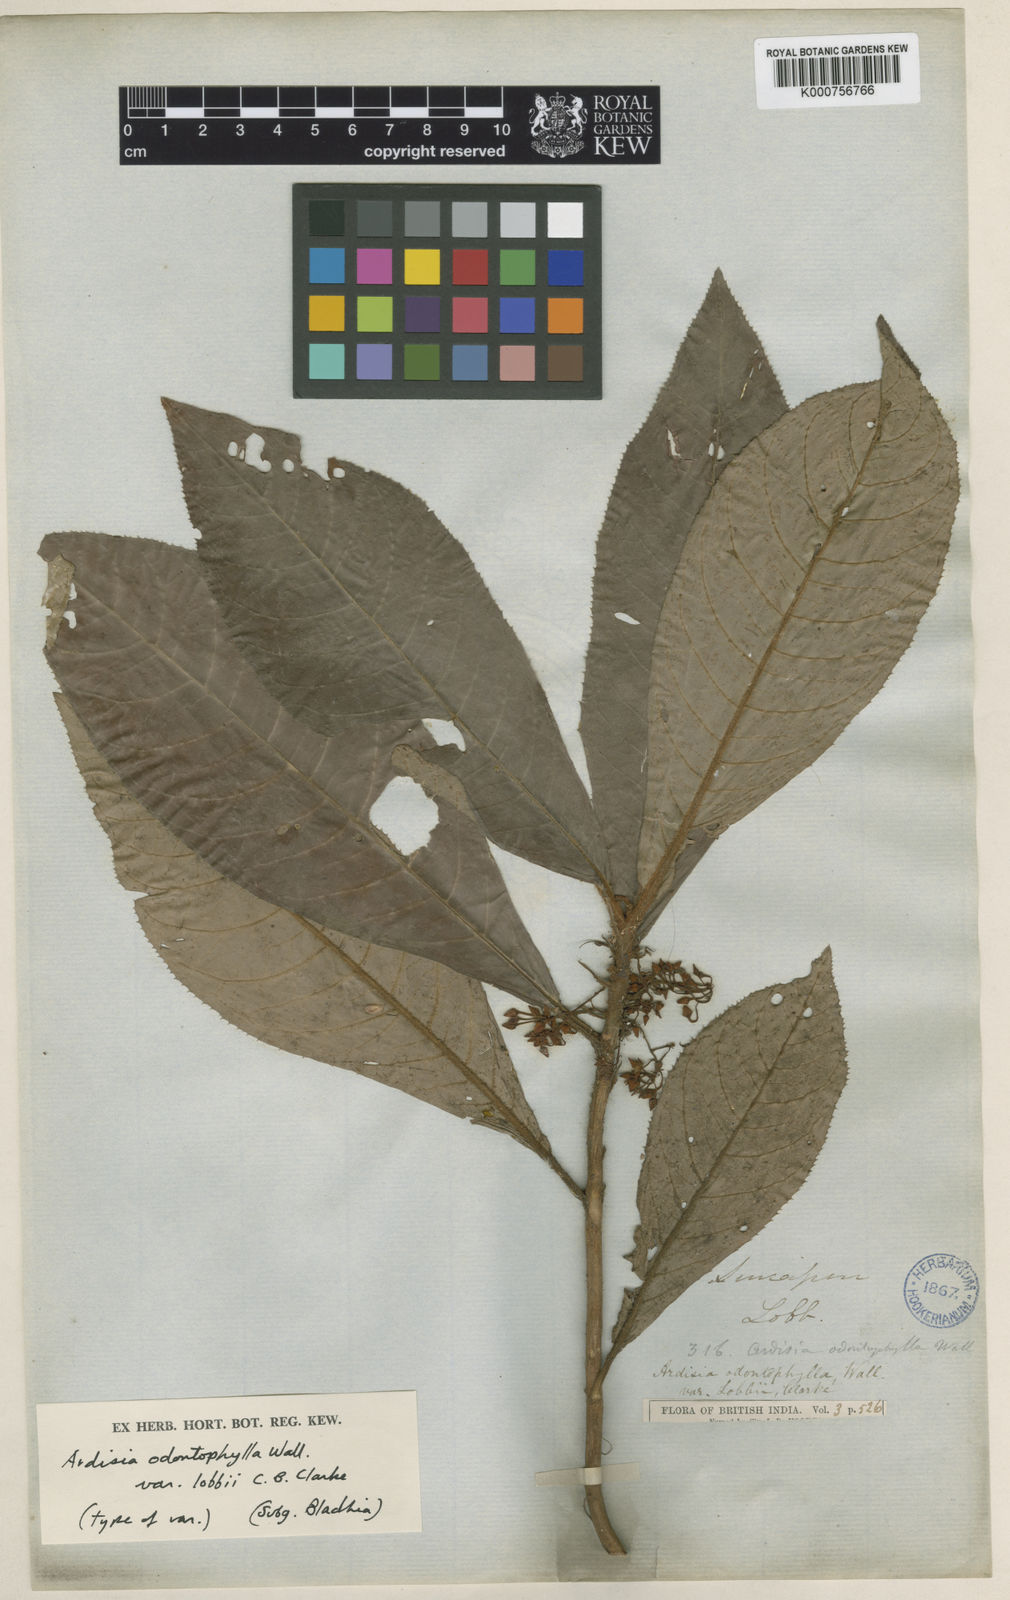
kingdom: Plantae
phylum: Tracheophyta
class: Magnoliopsida
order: Ericales
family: Primulaceae
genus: Ardisia
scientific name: Ardisia demissa
